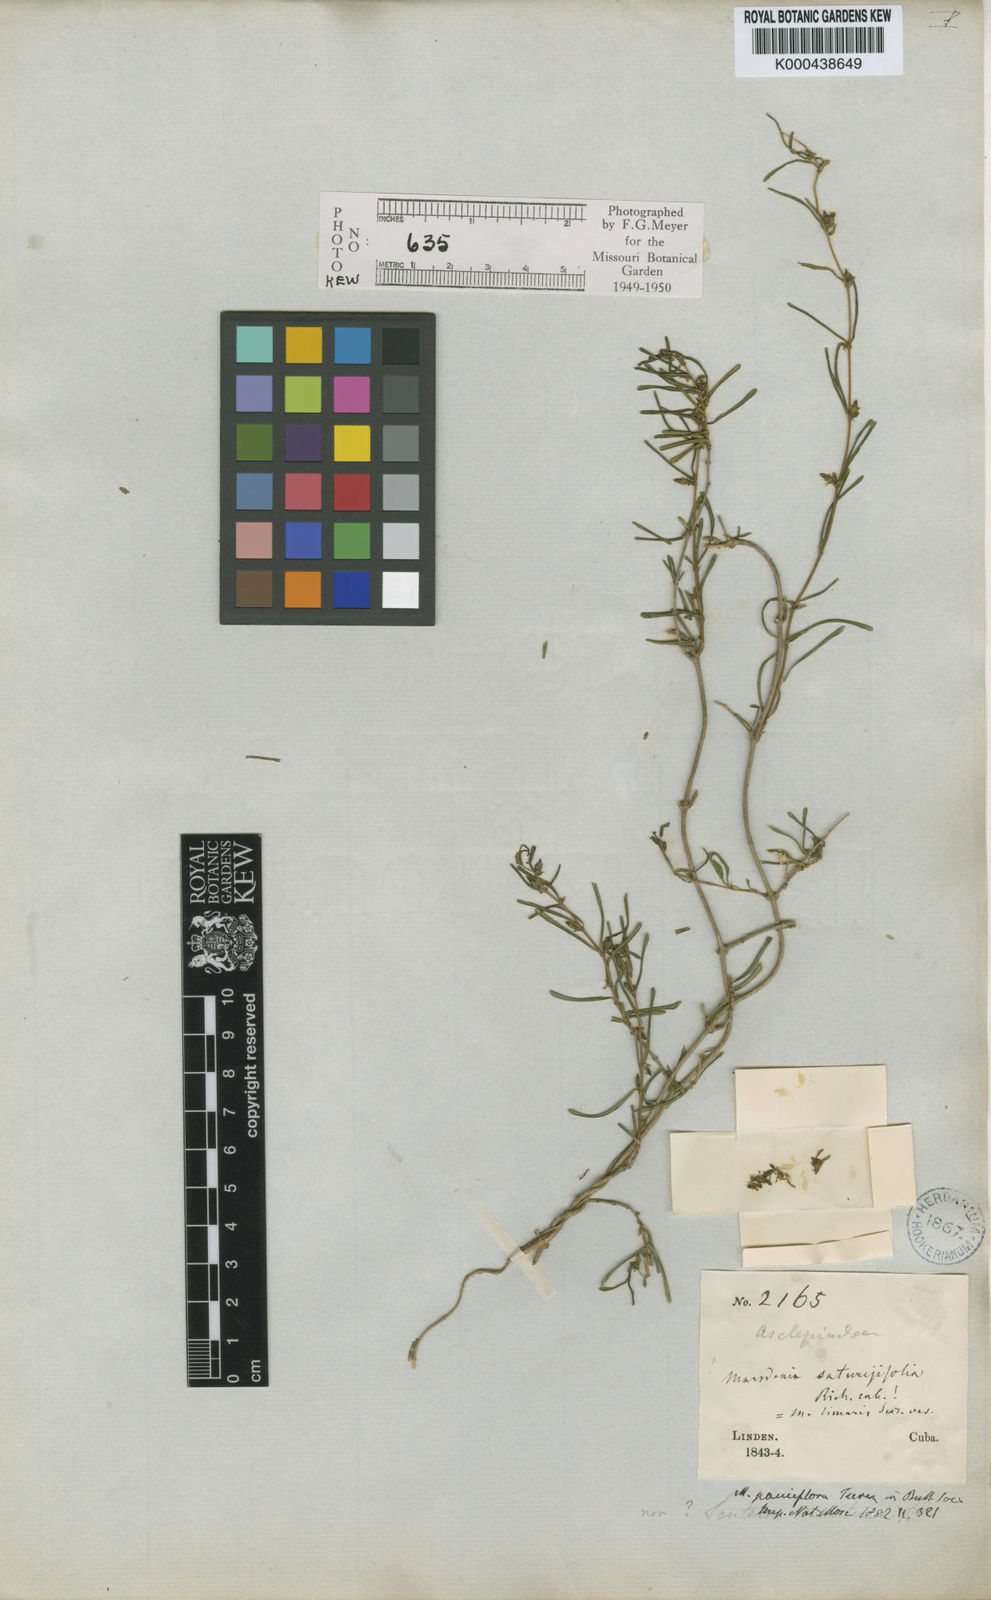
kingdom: Plantae
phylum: Tracheophyta
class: Magnoliopsida
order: Gentianales
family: Apocynaceae
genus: Ruehssia
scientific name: Ruehssia saturejifolia
